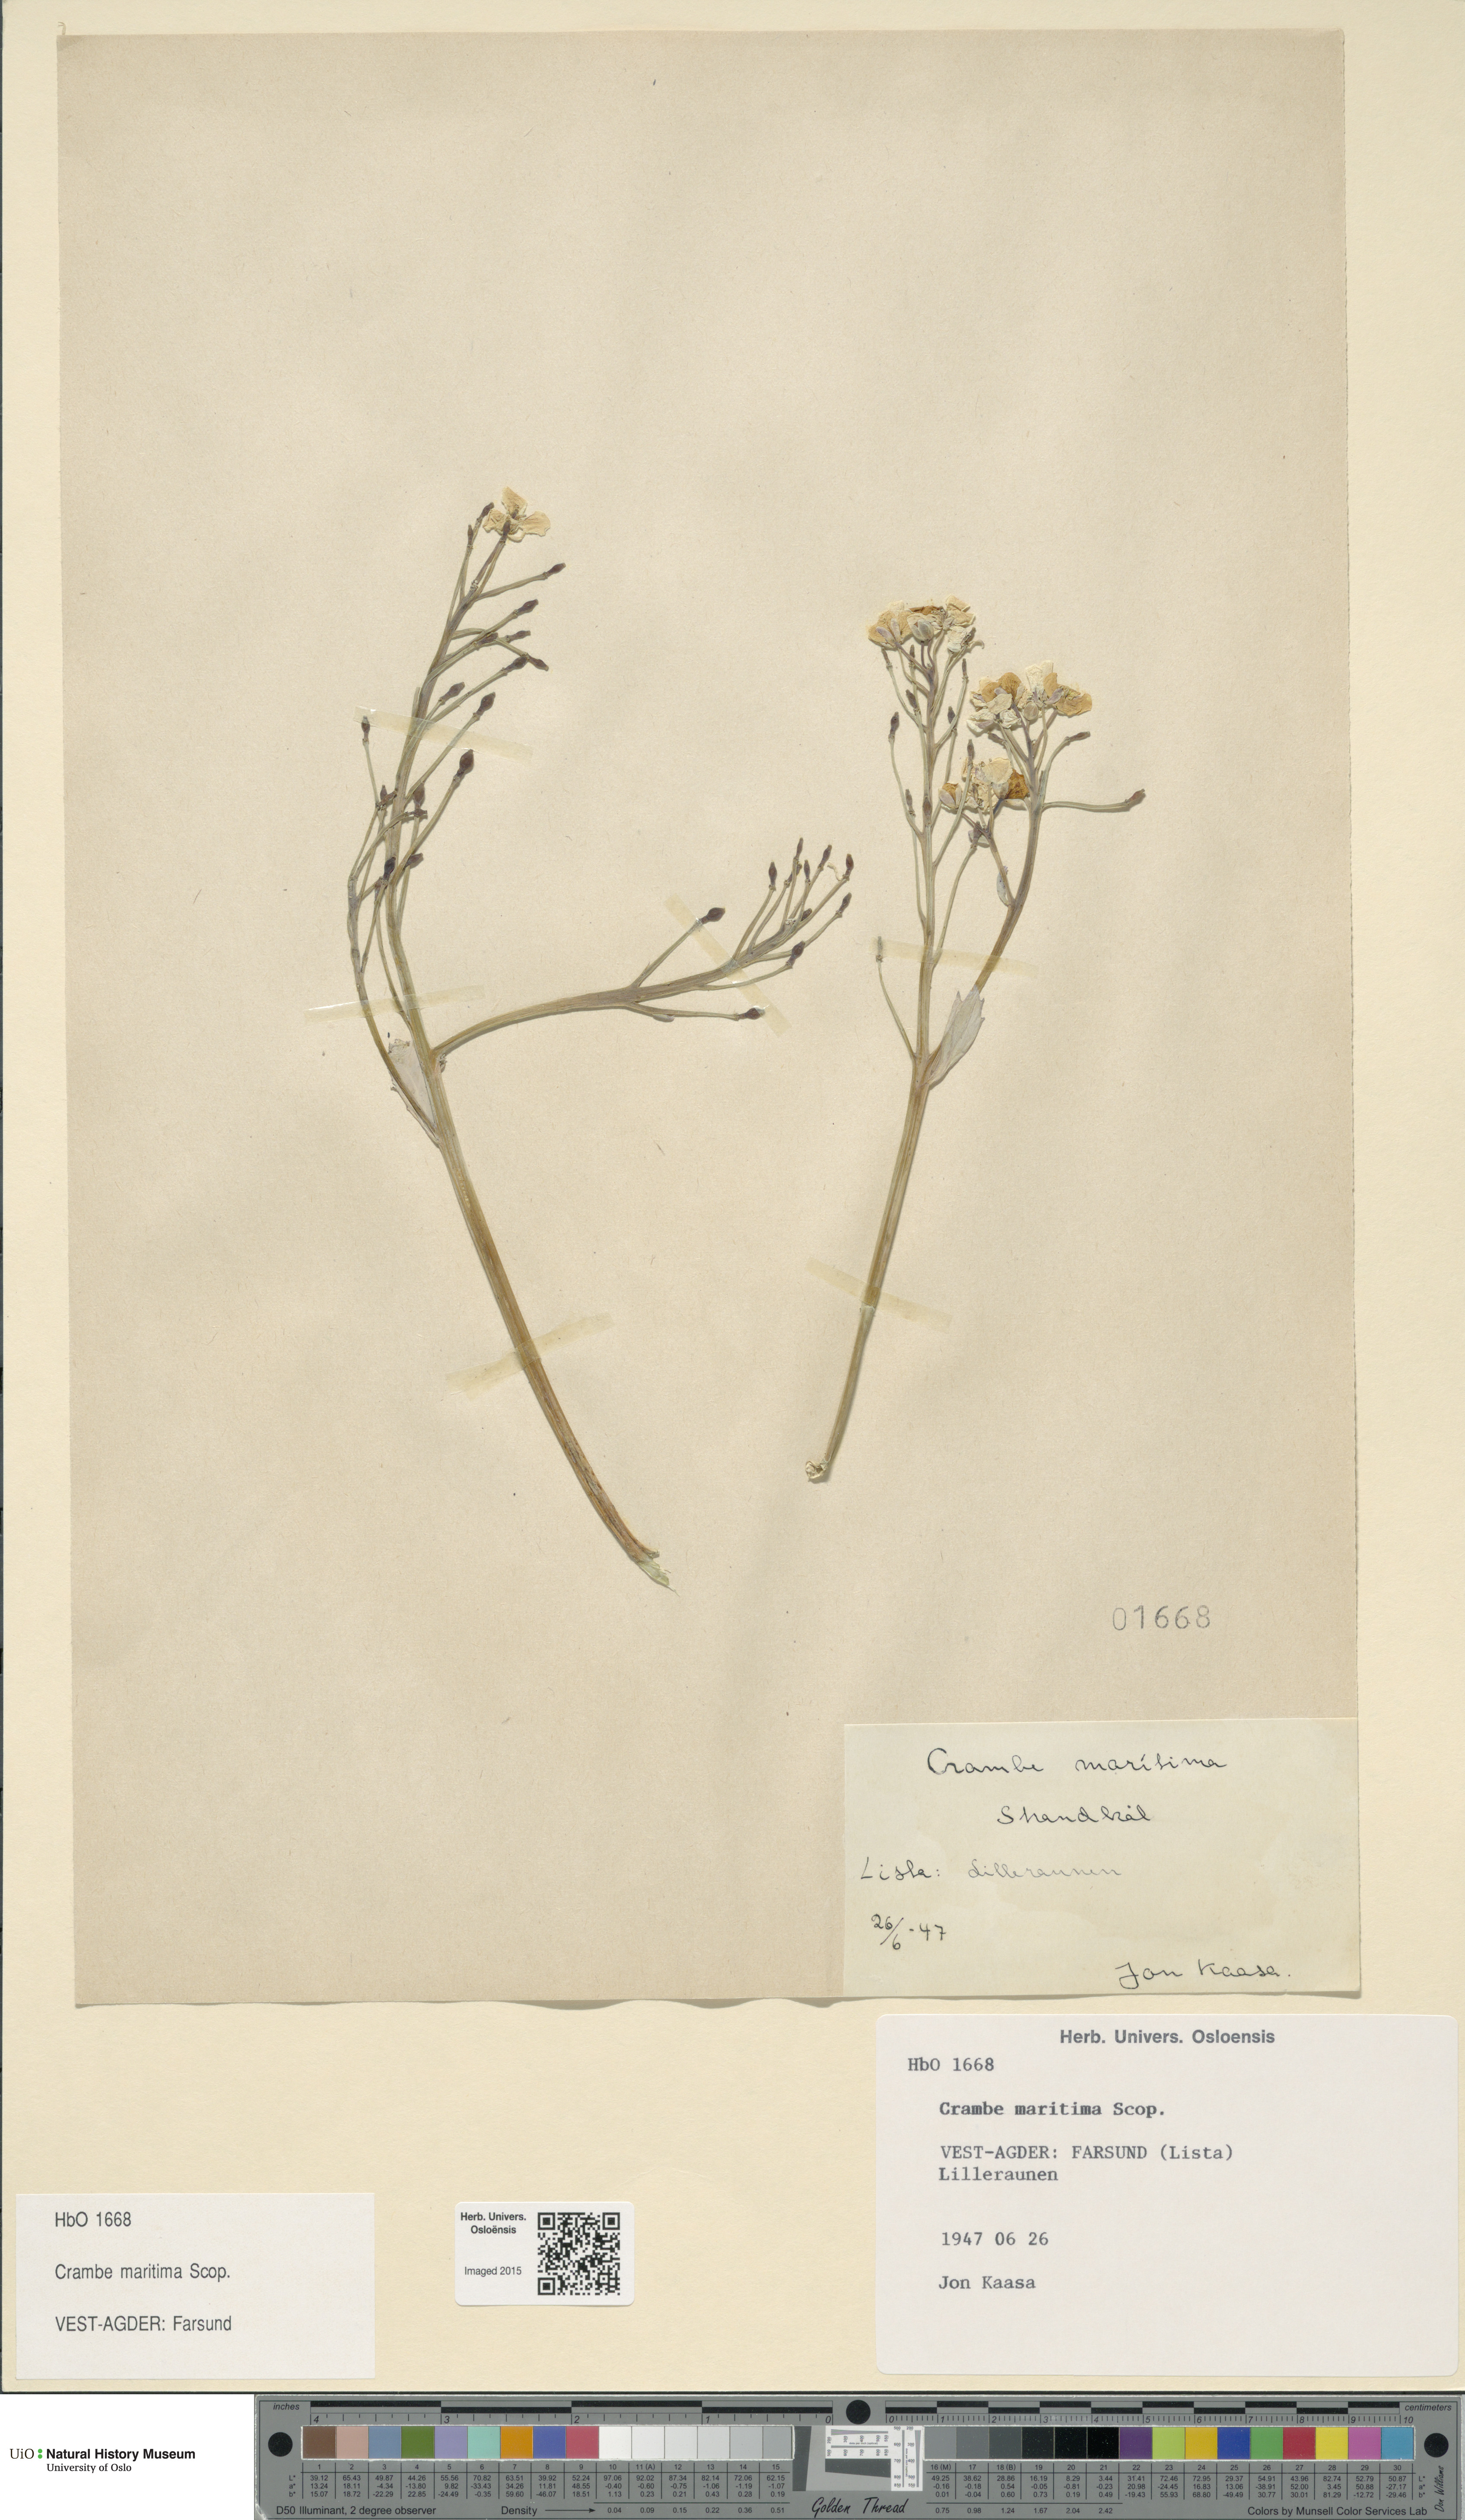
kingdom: Plantae
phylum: Tracheophyta
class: Magnoliopsida
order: Brassicales
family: Brassicaceae
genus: Crambe
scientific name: Crambe maritima
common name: Sea-kale
